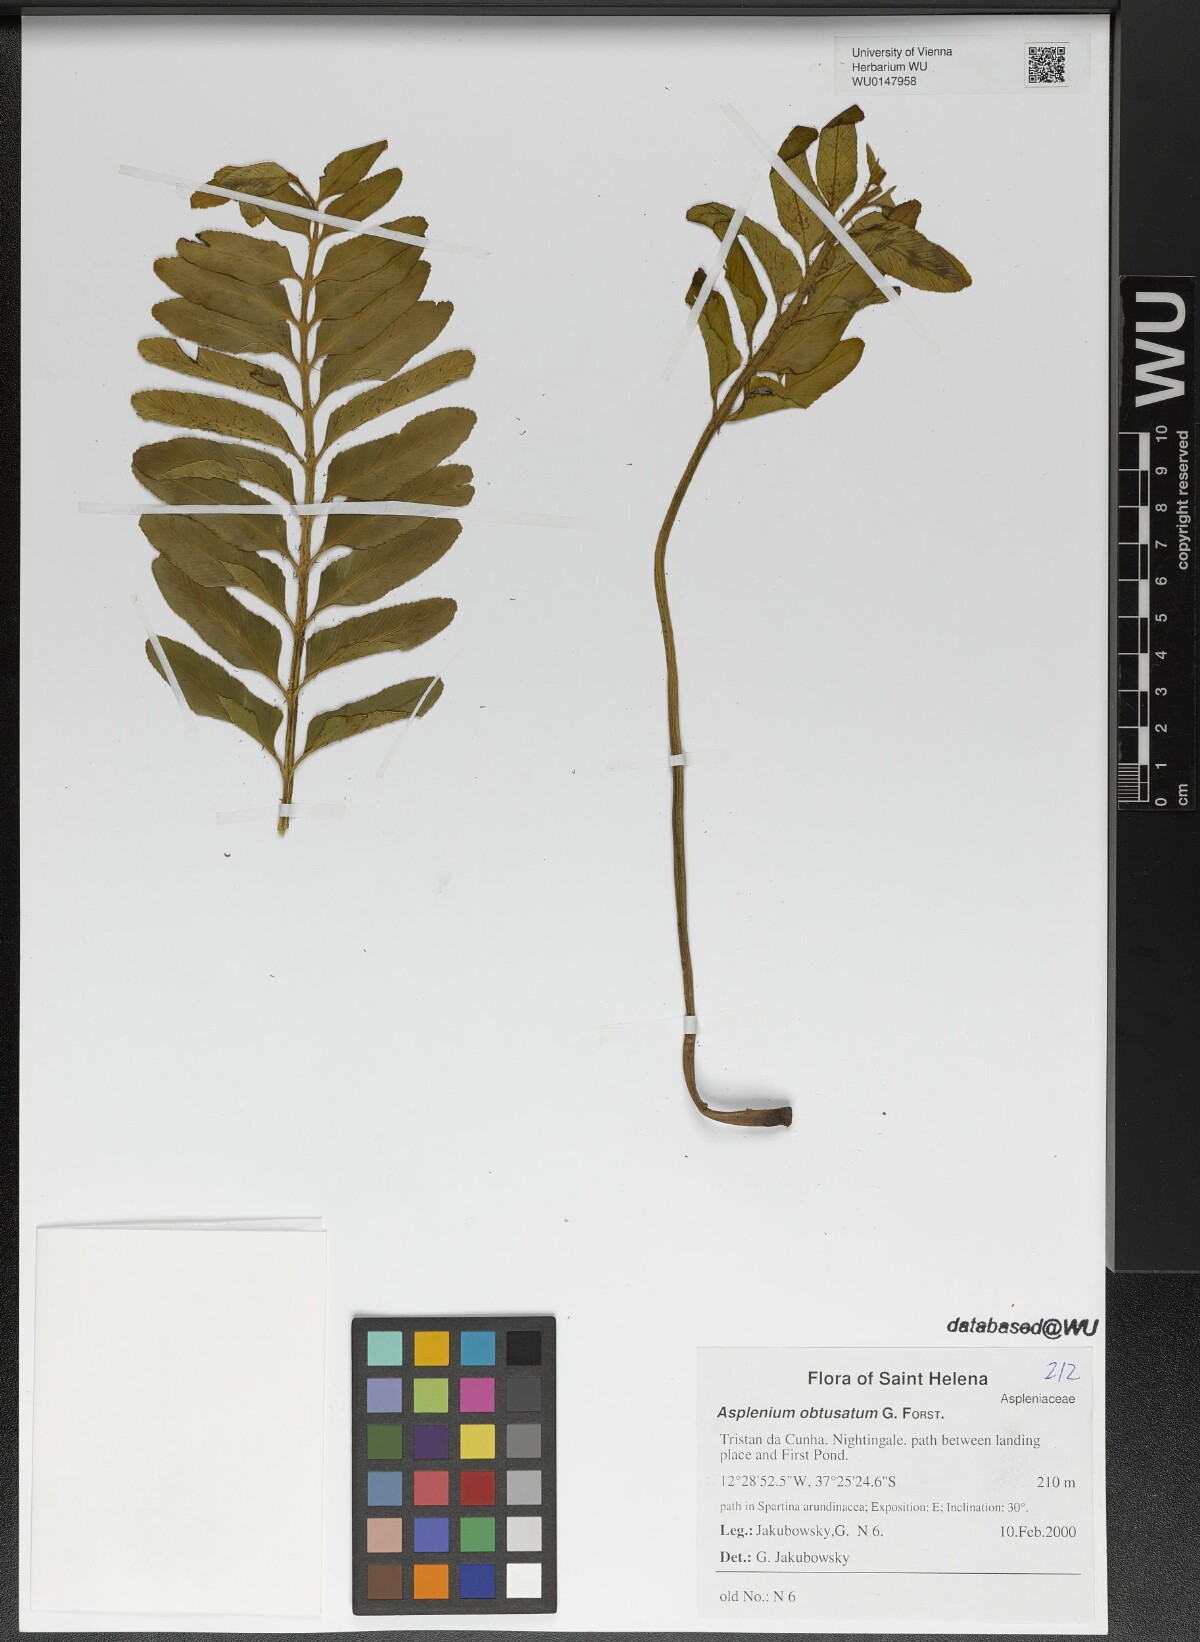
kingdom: Plantae
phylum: Tracheophyta
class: Polypodiopsida
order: Polypodiales
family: Aspleniaceae
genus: Asplenium
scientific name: Asplenium obtusatum
